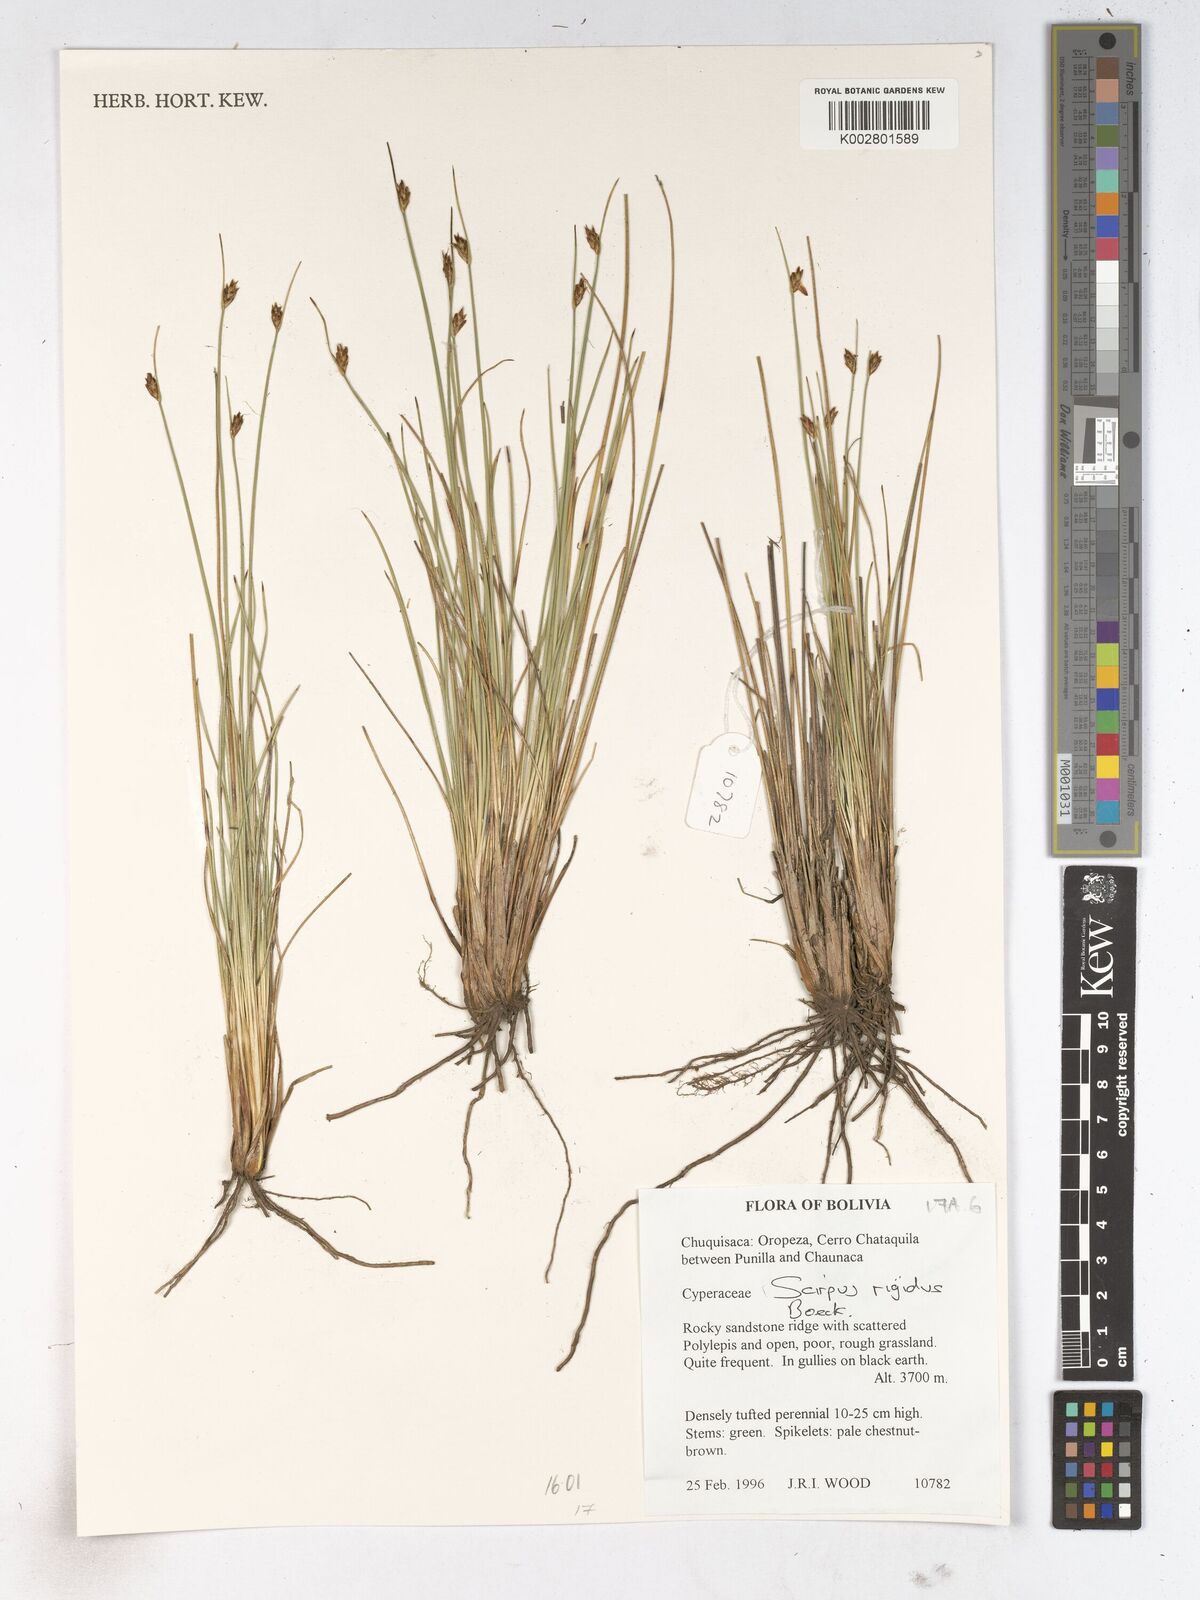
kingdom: Plantae
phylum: Tracheophyta
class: Liliopsida
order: Poales
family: Cyperaceae
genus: Trichophorum
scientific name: Trichophorum rigidum
